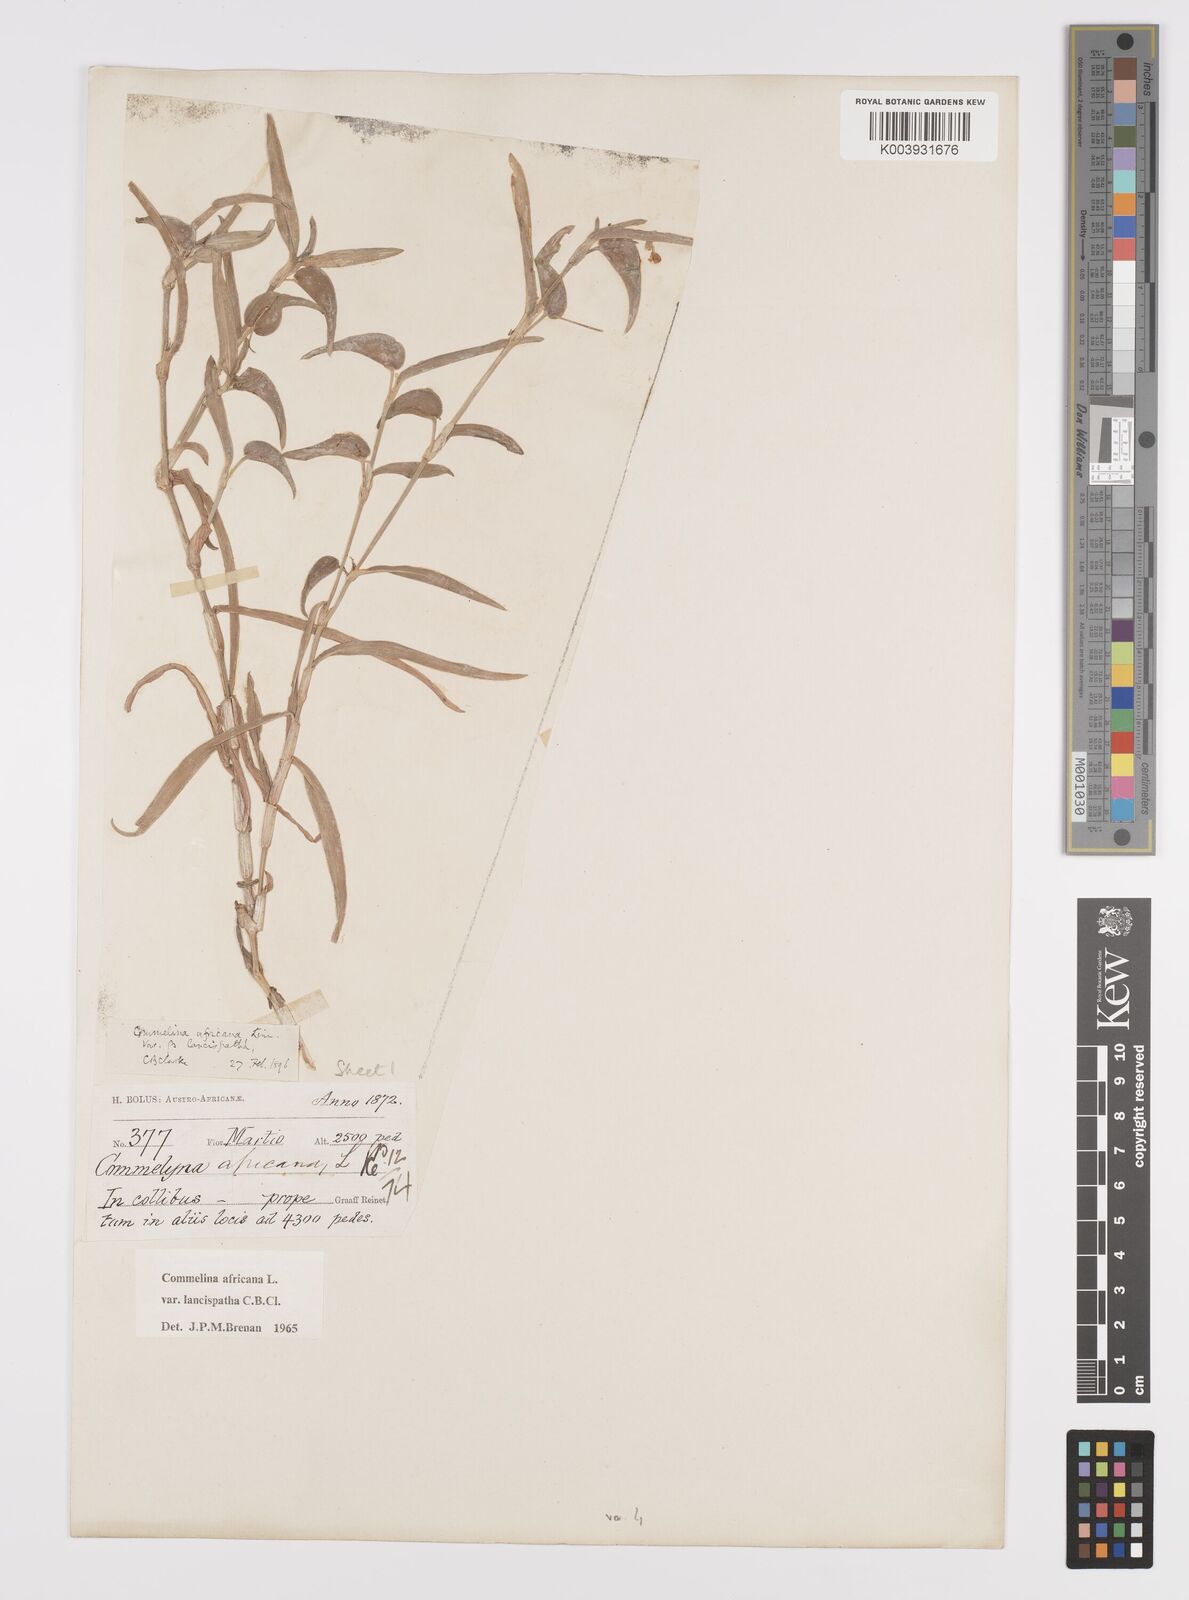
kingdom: Plantae
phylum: Tracheophyta
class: Liliopsida
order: Commelinales
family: Commelinaceae
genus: Commelina
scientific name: Commelina africana
